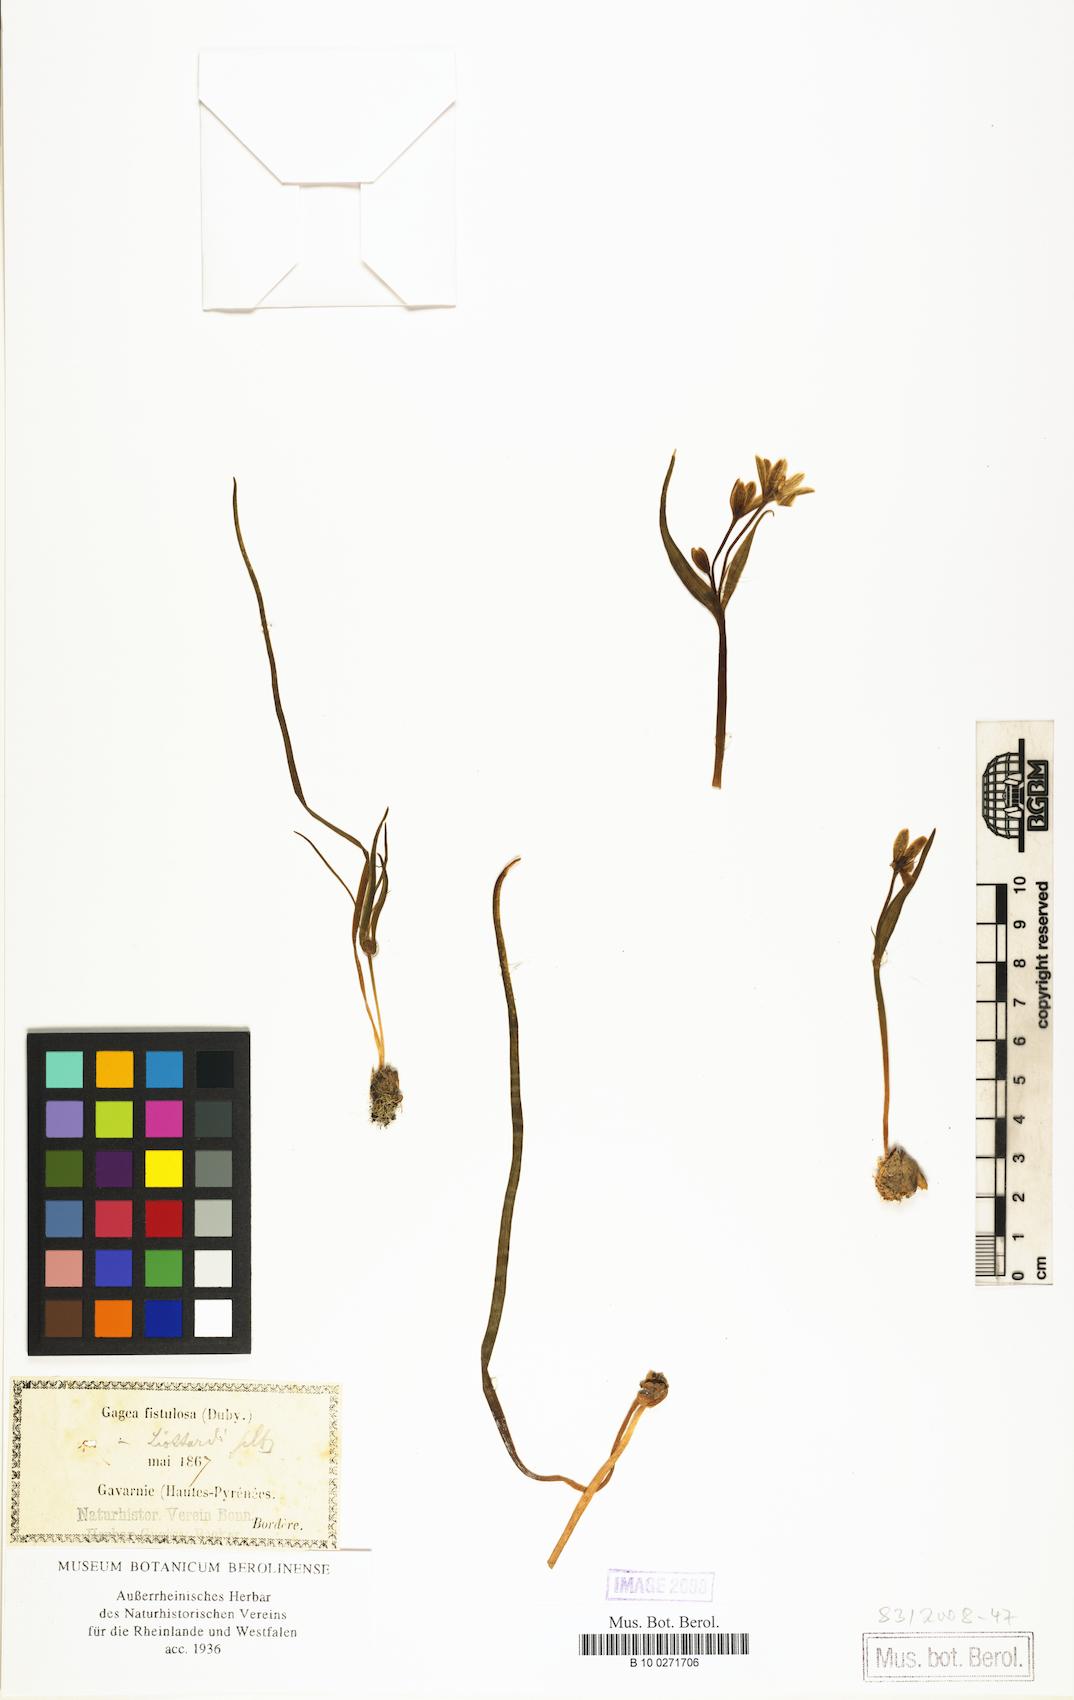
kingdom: Plantae
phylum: Tracheophyta
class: Liliopsida
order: Liliales
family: Liliaceae
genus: Gagea
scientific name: Gagea bohemica
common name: Early star-of-bethlehem
